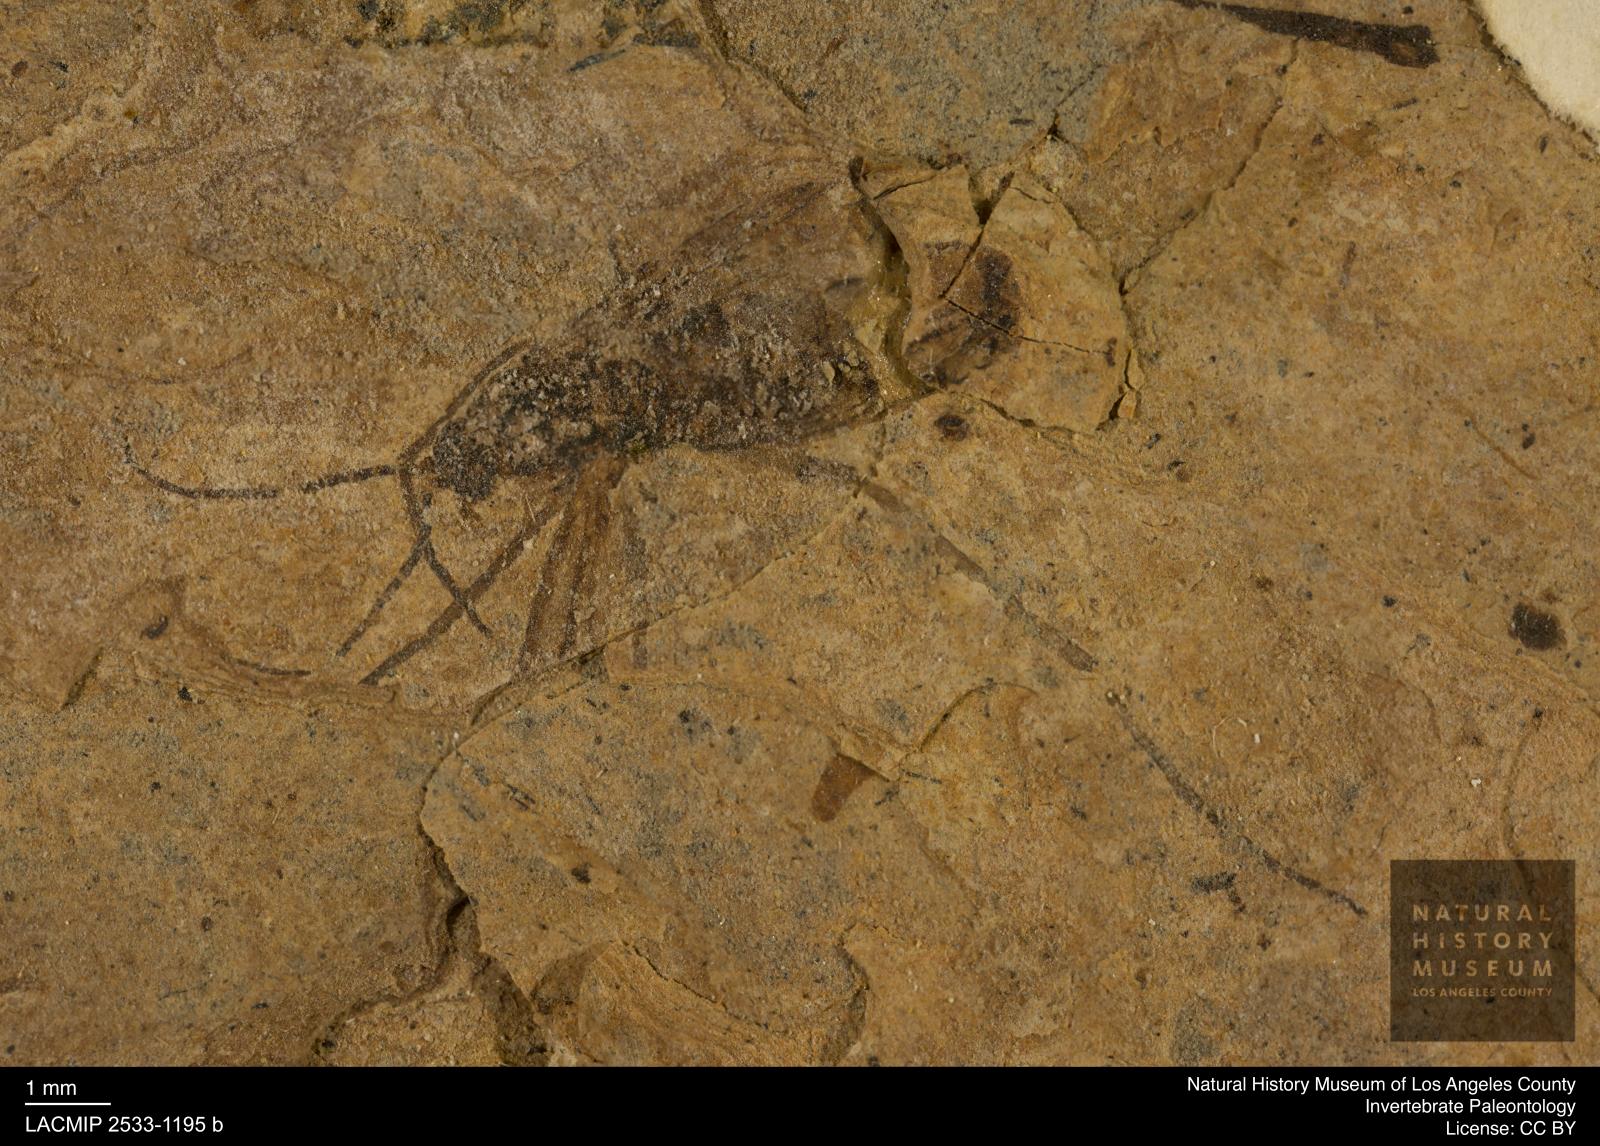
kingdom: Animalia
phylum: Arthropoda
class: Insecta
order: Diptera
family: Bibionidae
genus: Plecia
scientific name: Plecia hypogaea
